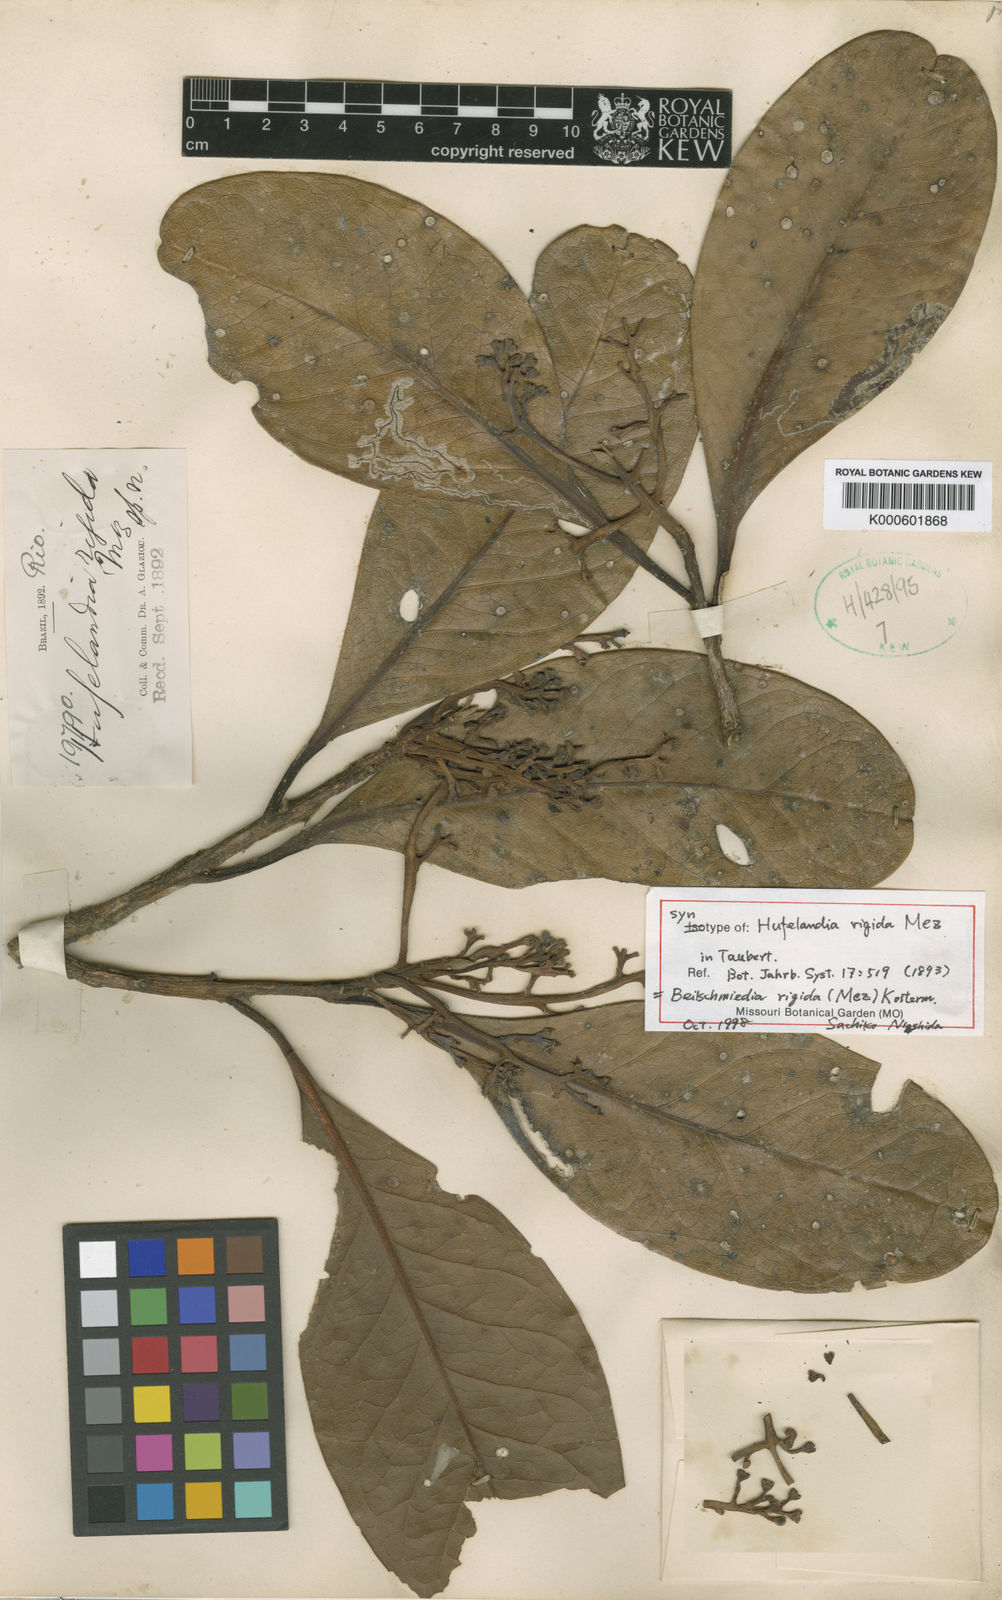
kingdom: Plantae
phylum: Tracheophyta
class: Magnoliopsida
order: Laurales
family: Lauraceae
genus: Beilschmiedia
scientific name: Beilschmiedia rigida
